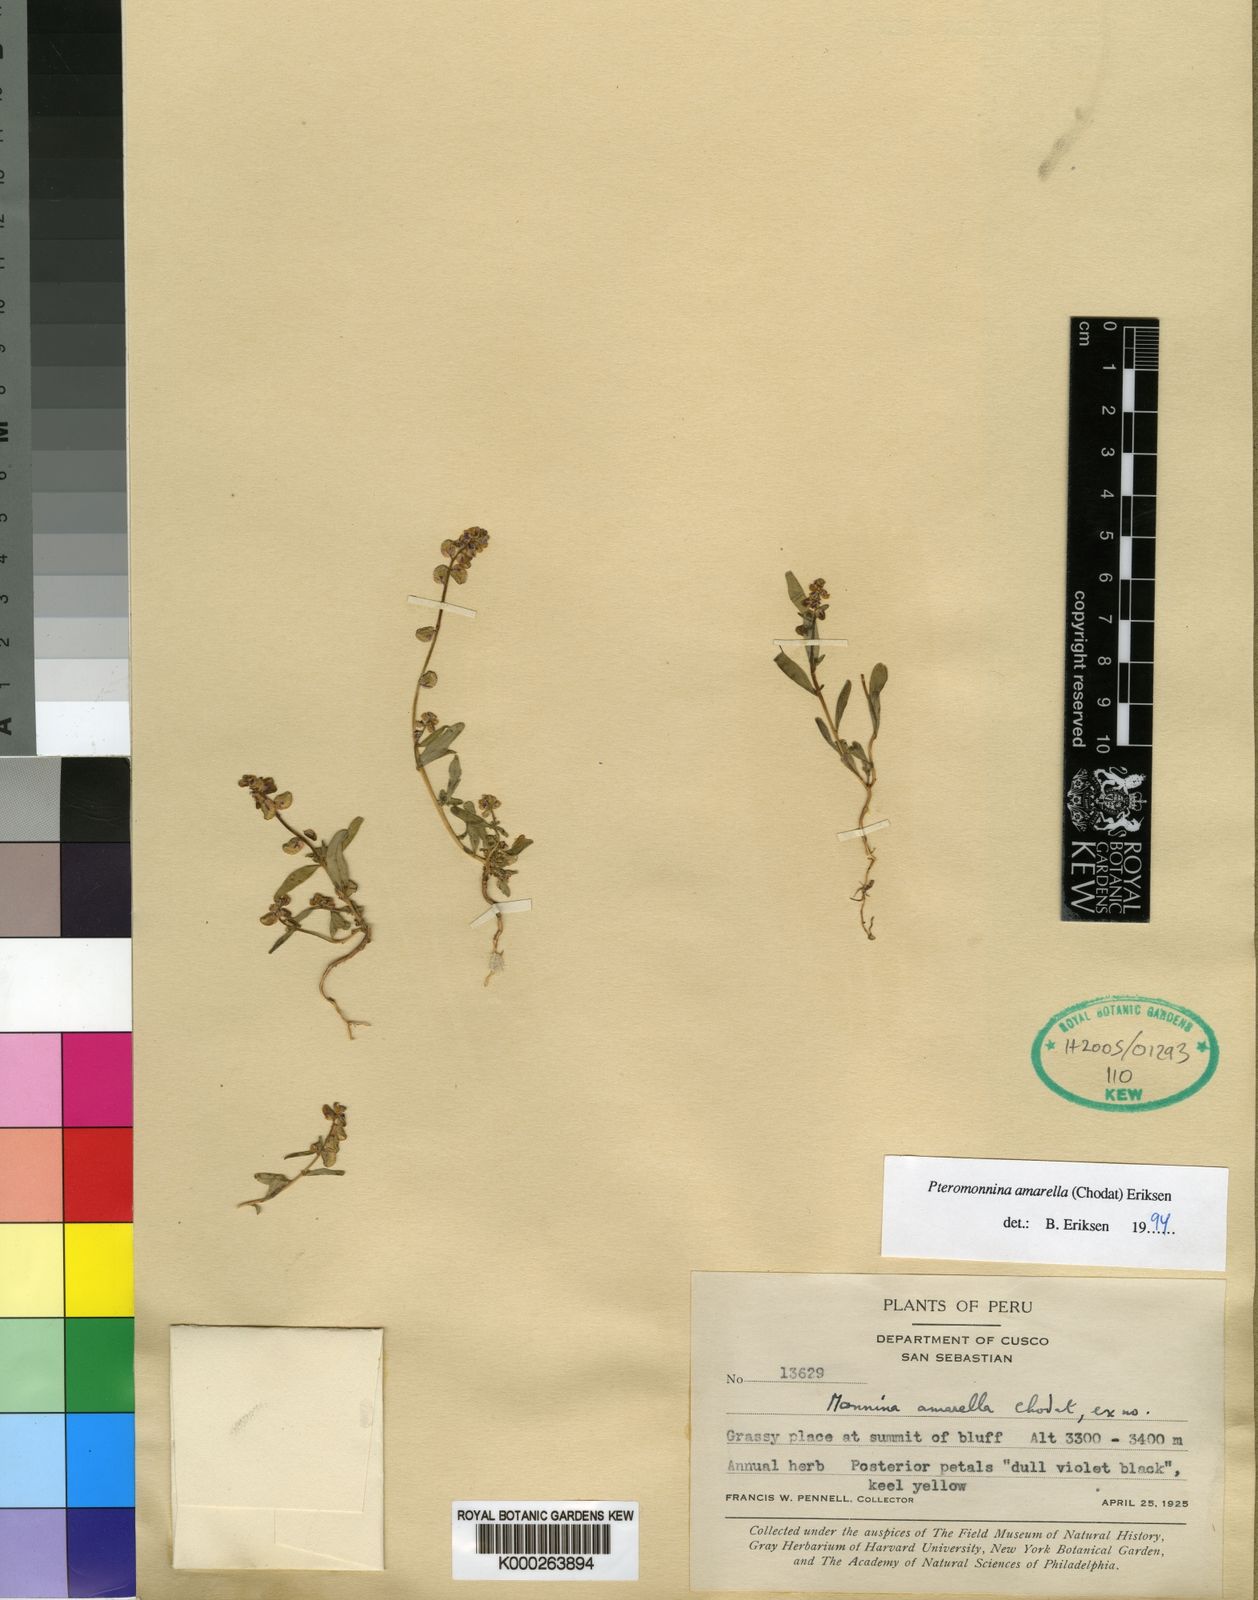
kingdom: Plantae
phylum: Tracheophyta
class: Magnoliopsida
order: Fabales
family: Polygalaceae
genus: Monnina
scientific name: Monnina
